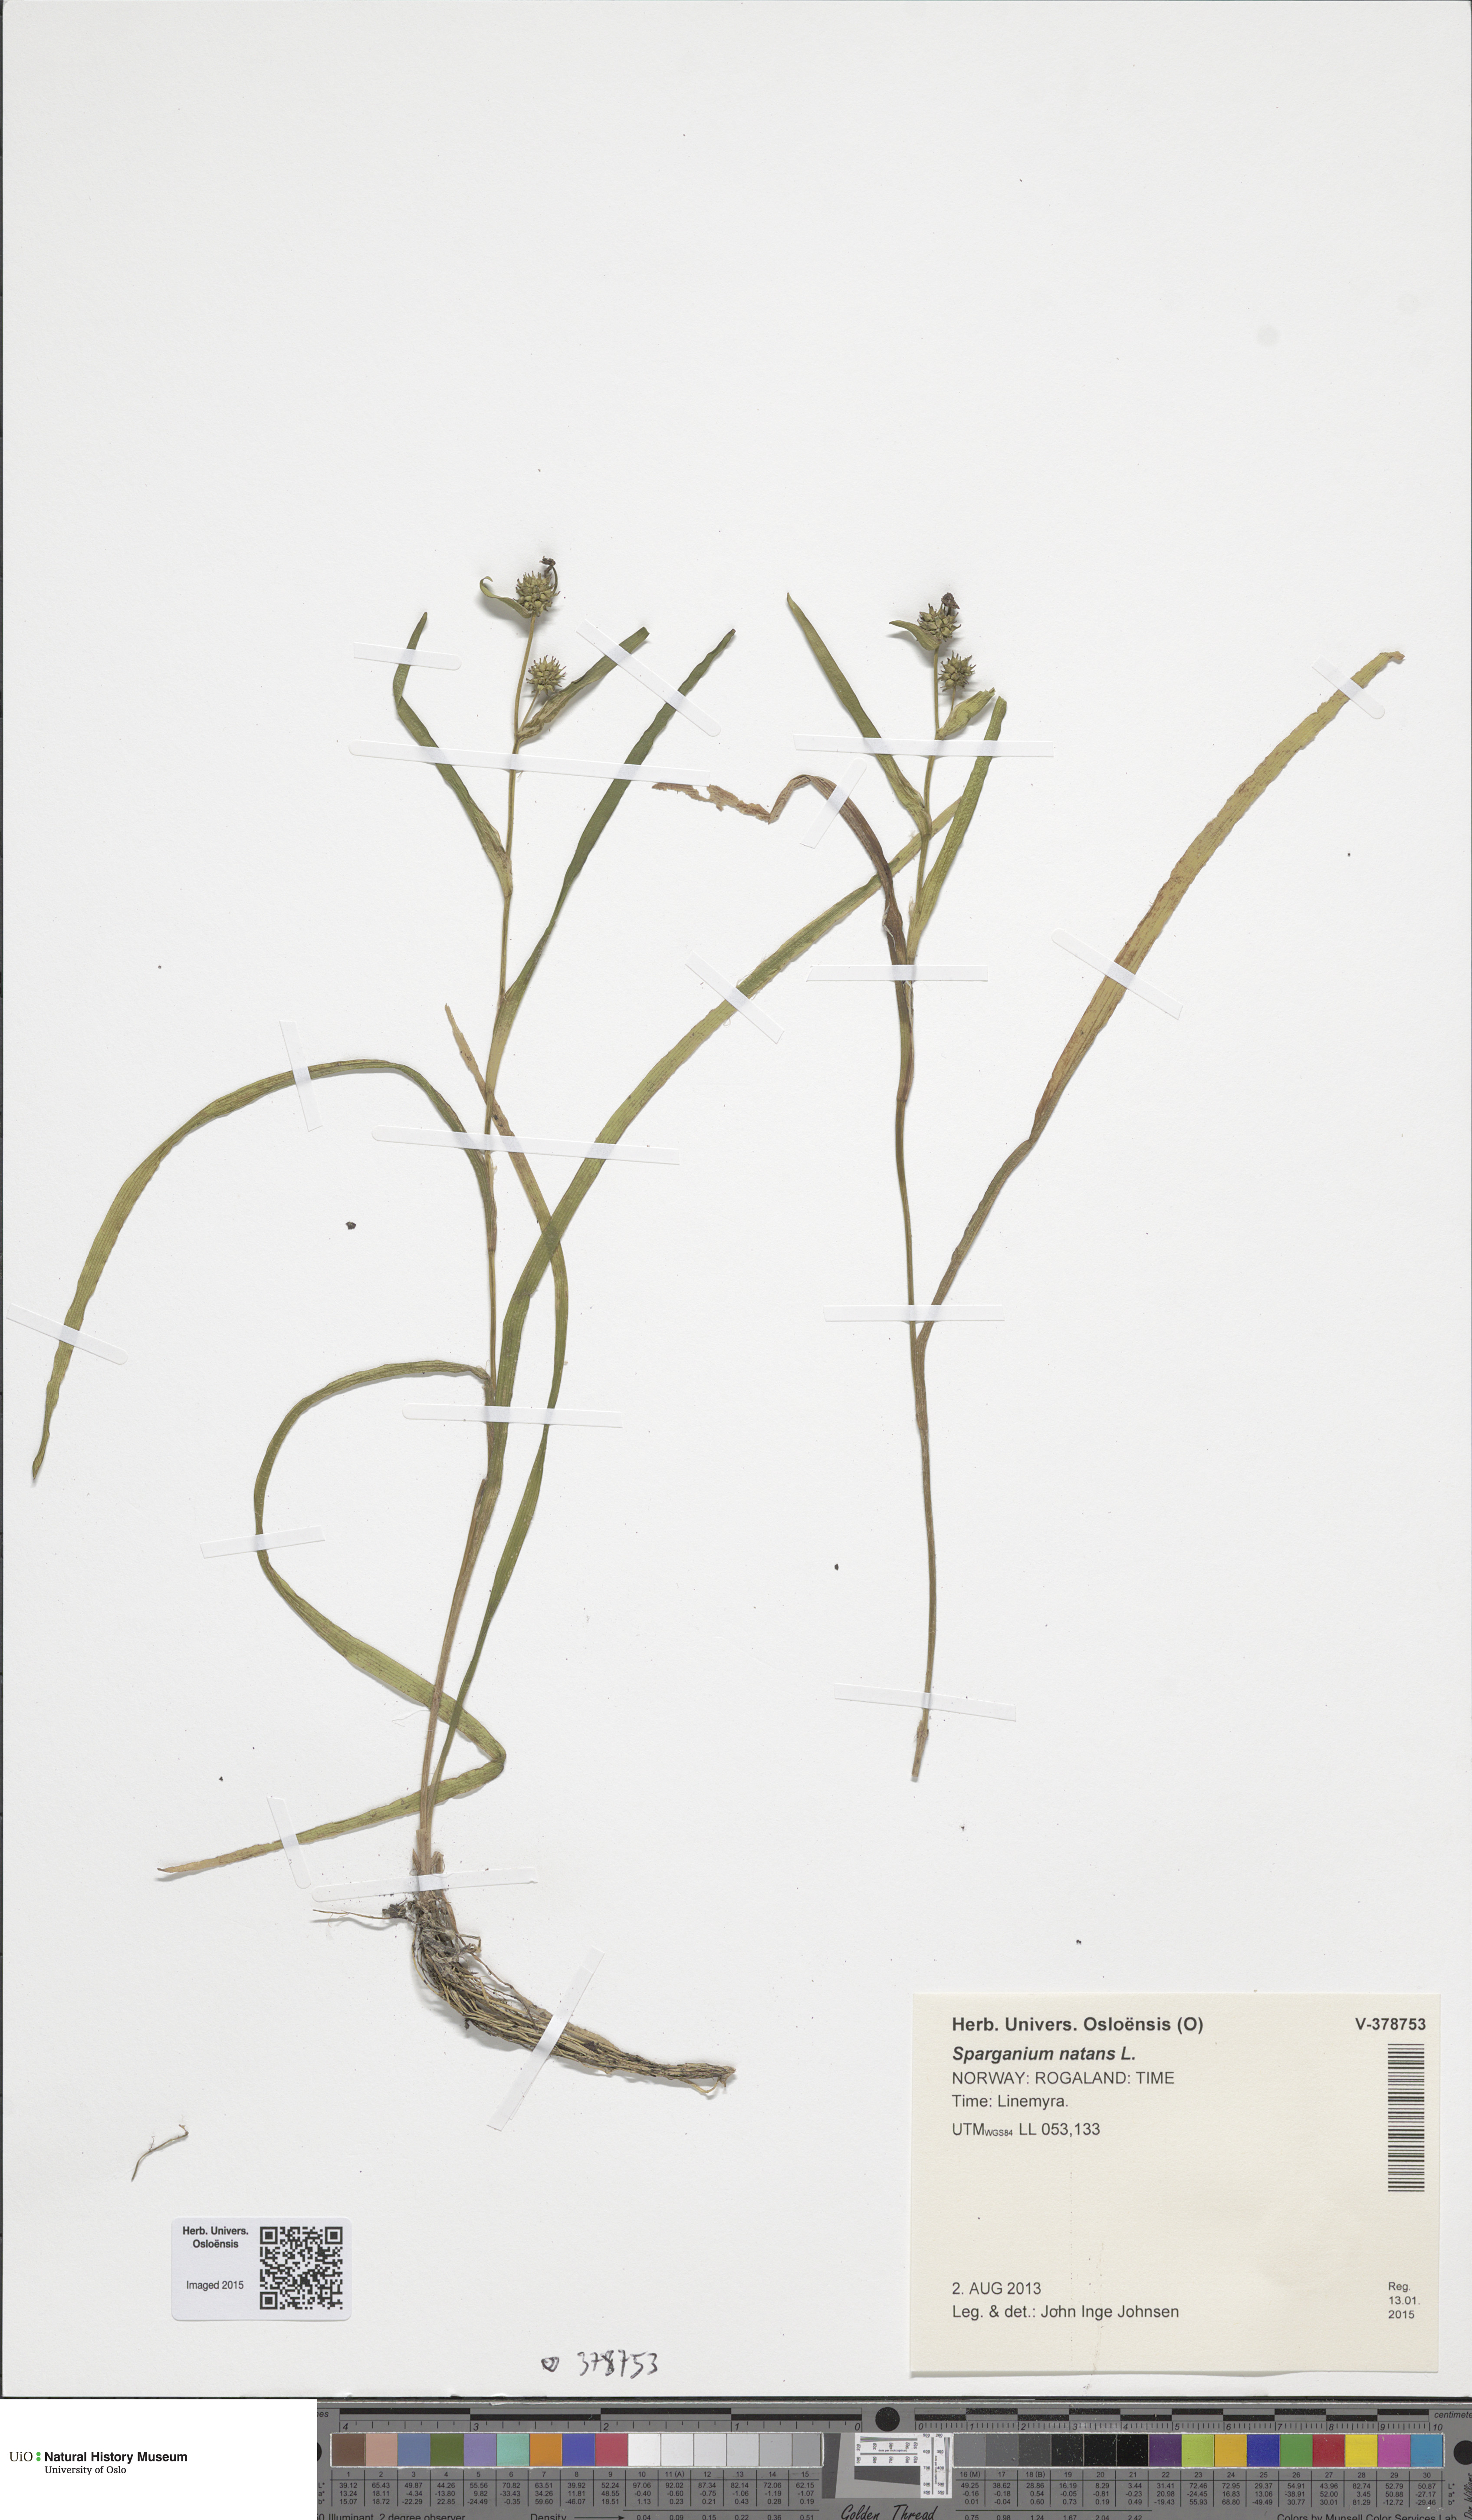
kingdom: Plantae
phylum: Tracheophyta
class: Liliopsida
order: Poales
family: Typhaceae
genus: Sparganium
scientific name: Sparganium natans
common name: Least bur-reed
